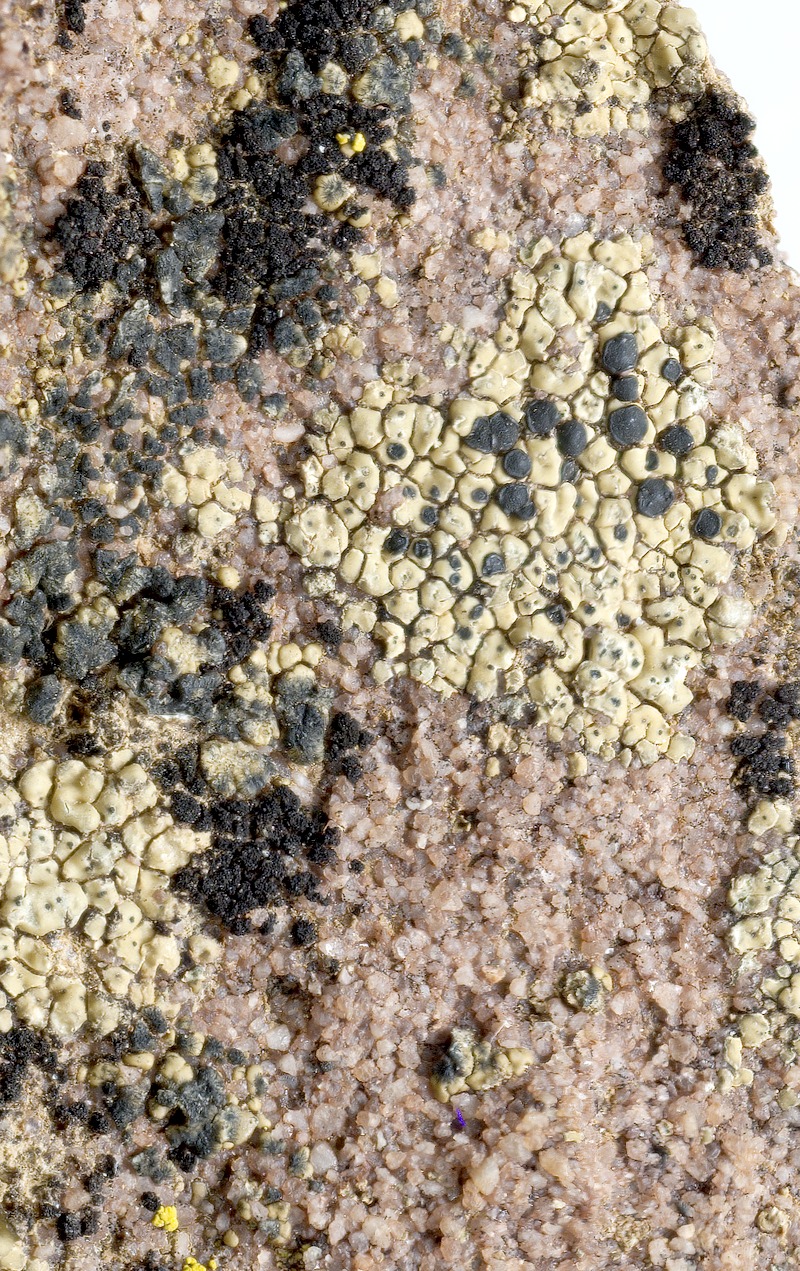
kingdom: Fungi
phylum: Ascomycota
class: Arthoniomycetes
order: Lichenostigmatales
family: Phaeococcomycetaceae
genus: Lichenostigma
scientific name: Lichenostigma gracile
